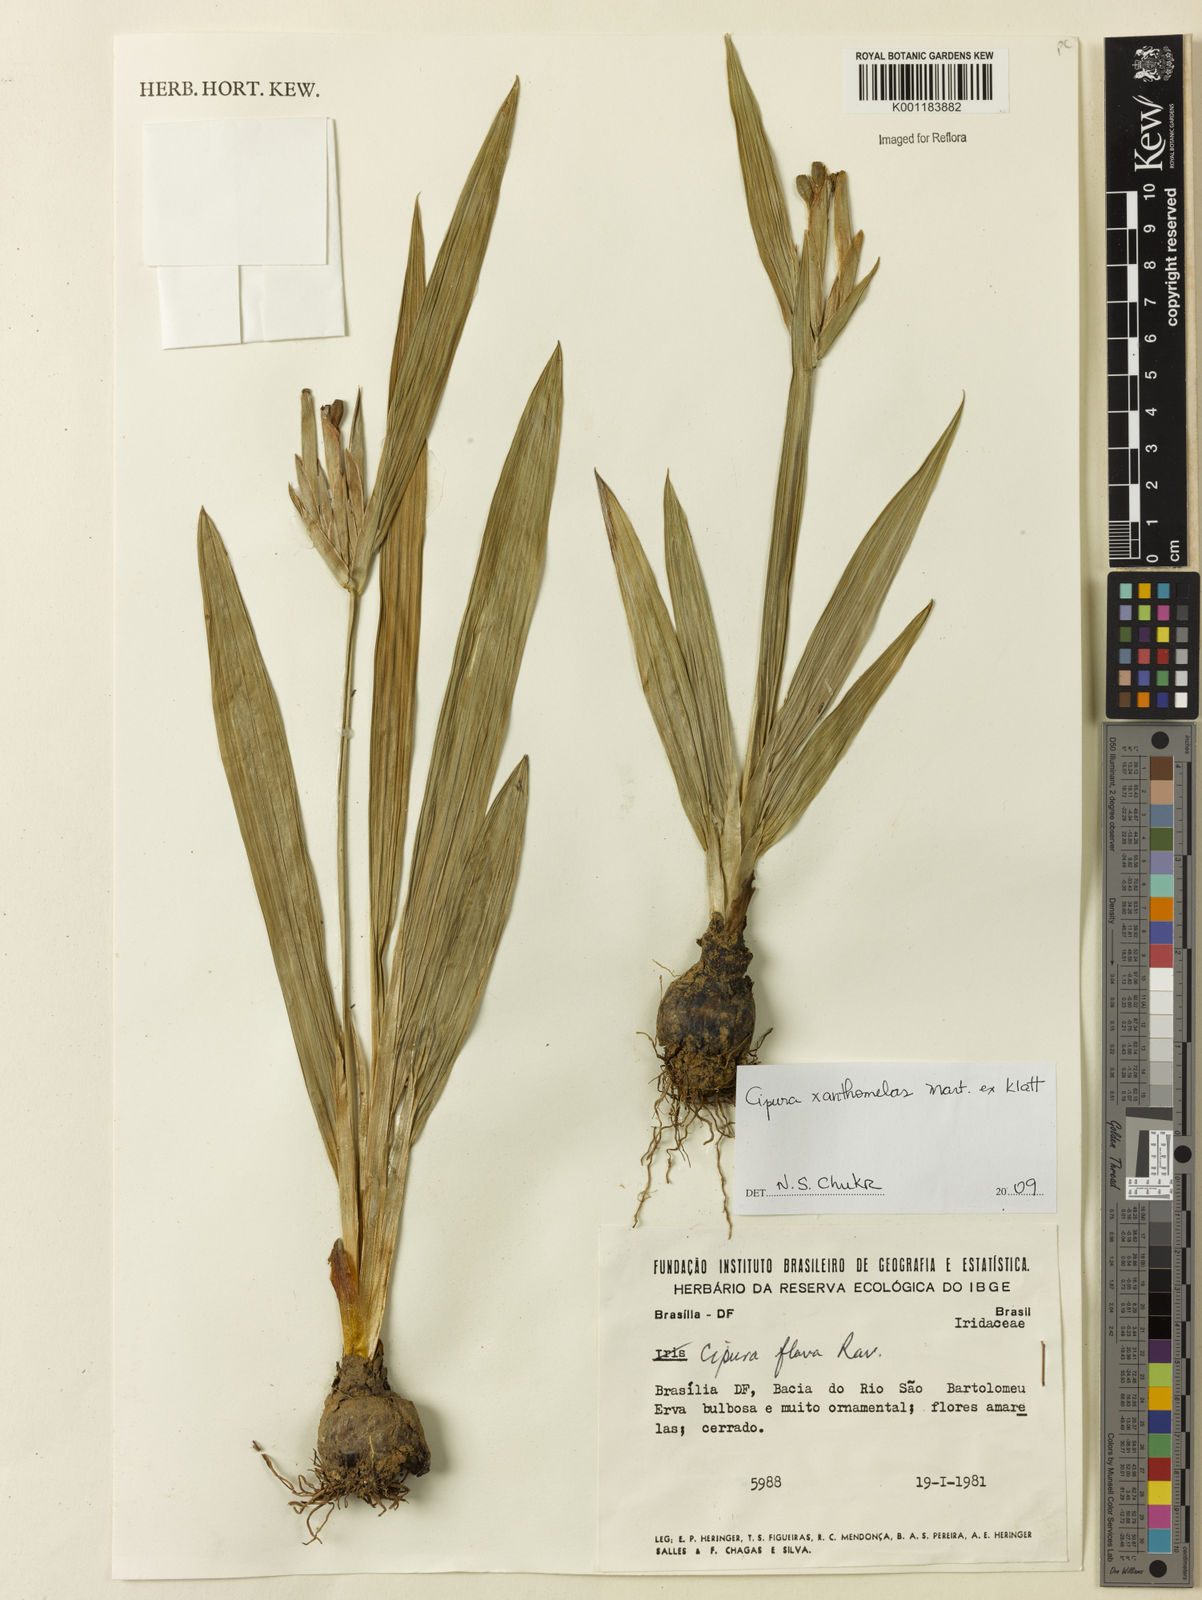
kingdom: Plantae
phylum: Tracheophyta
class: Liliopsida
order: Asparagales
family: Iridaceae
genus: Cipura
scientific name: Cipura xanthomelas
